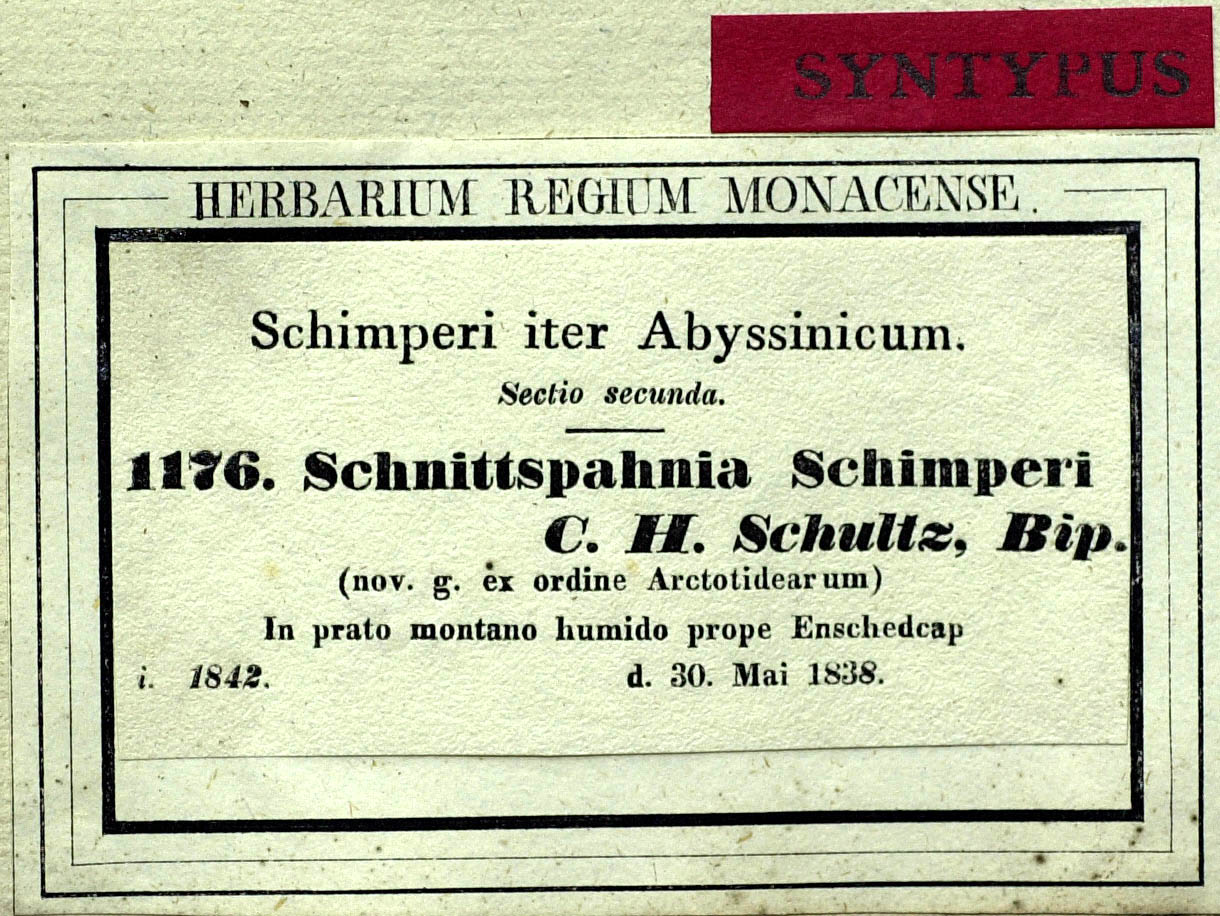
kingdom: Plantae
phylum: Tracheophyta
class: Magnoliopsida
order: Asterales
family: Asteraceae
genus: Haplocarpha
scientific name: Haplocarpha schimperi
